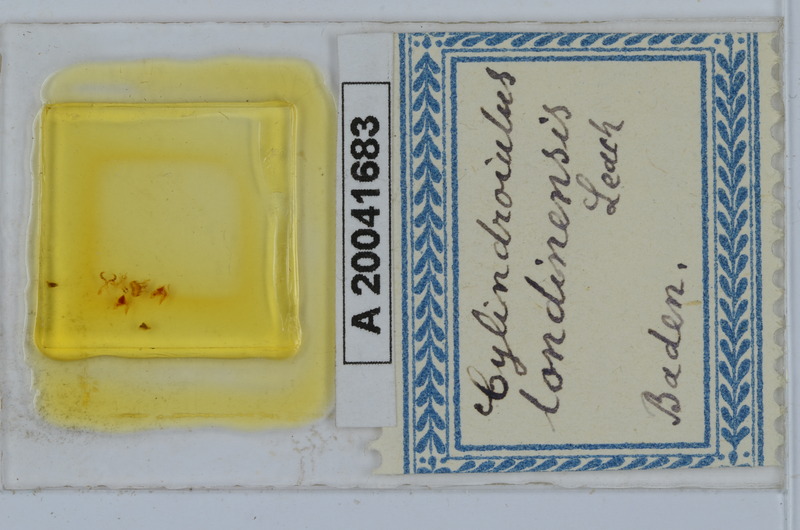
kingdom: Animalia
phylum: Arthropoda
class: Diplopoda
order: Julida
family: Julidae
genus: Cylindroiulus
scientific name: Cylindroiulus londinensis
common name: Black millipede
